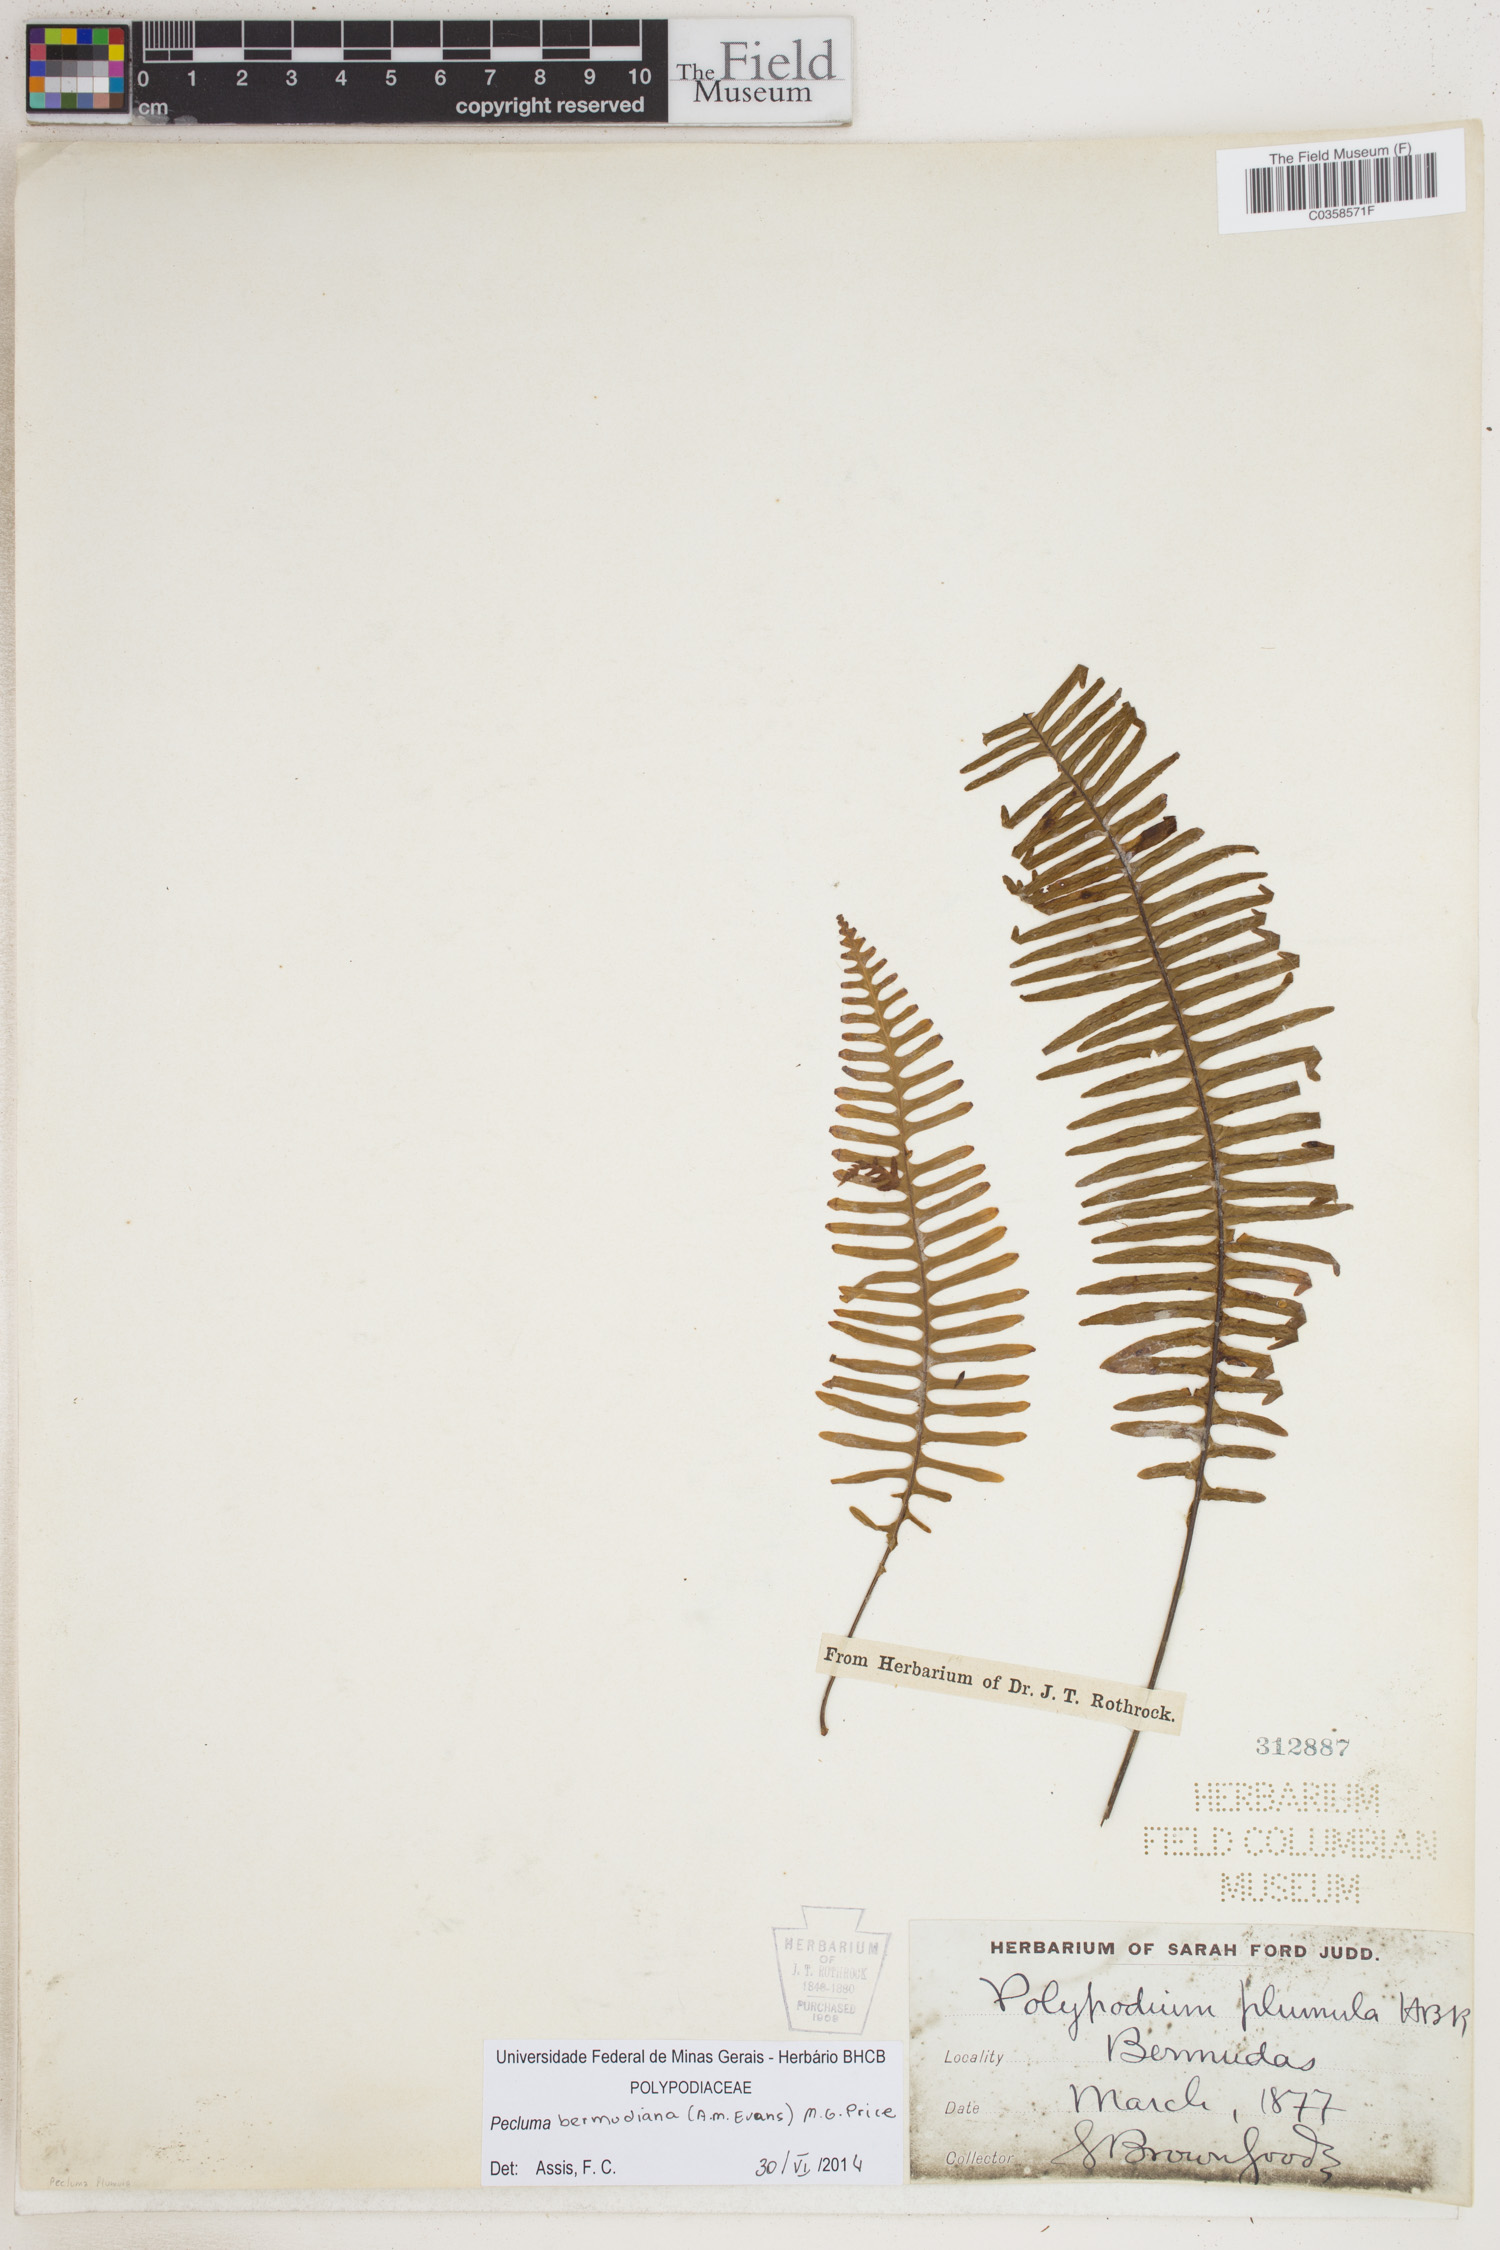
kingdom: Plantae
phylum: Tracheophyta
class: Polypodiopsida
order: Polypodiales
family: Polypodiaceae
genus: Pecluma
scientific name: Pecluma bermudiana
